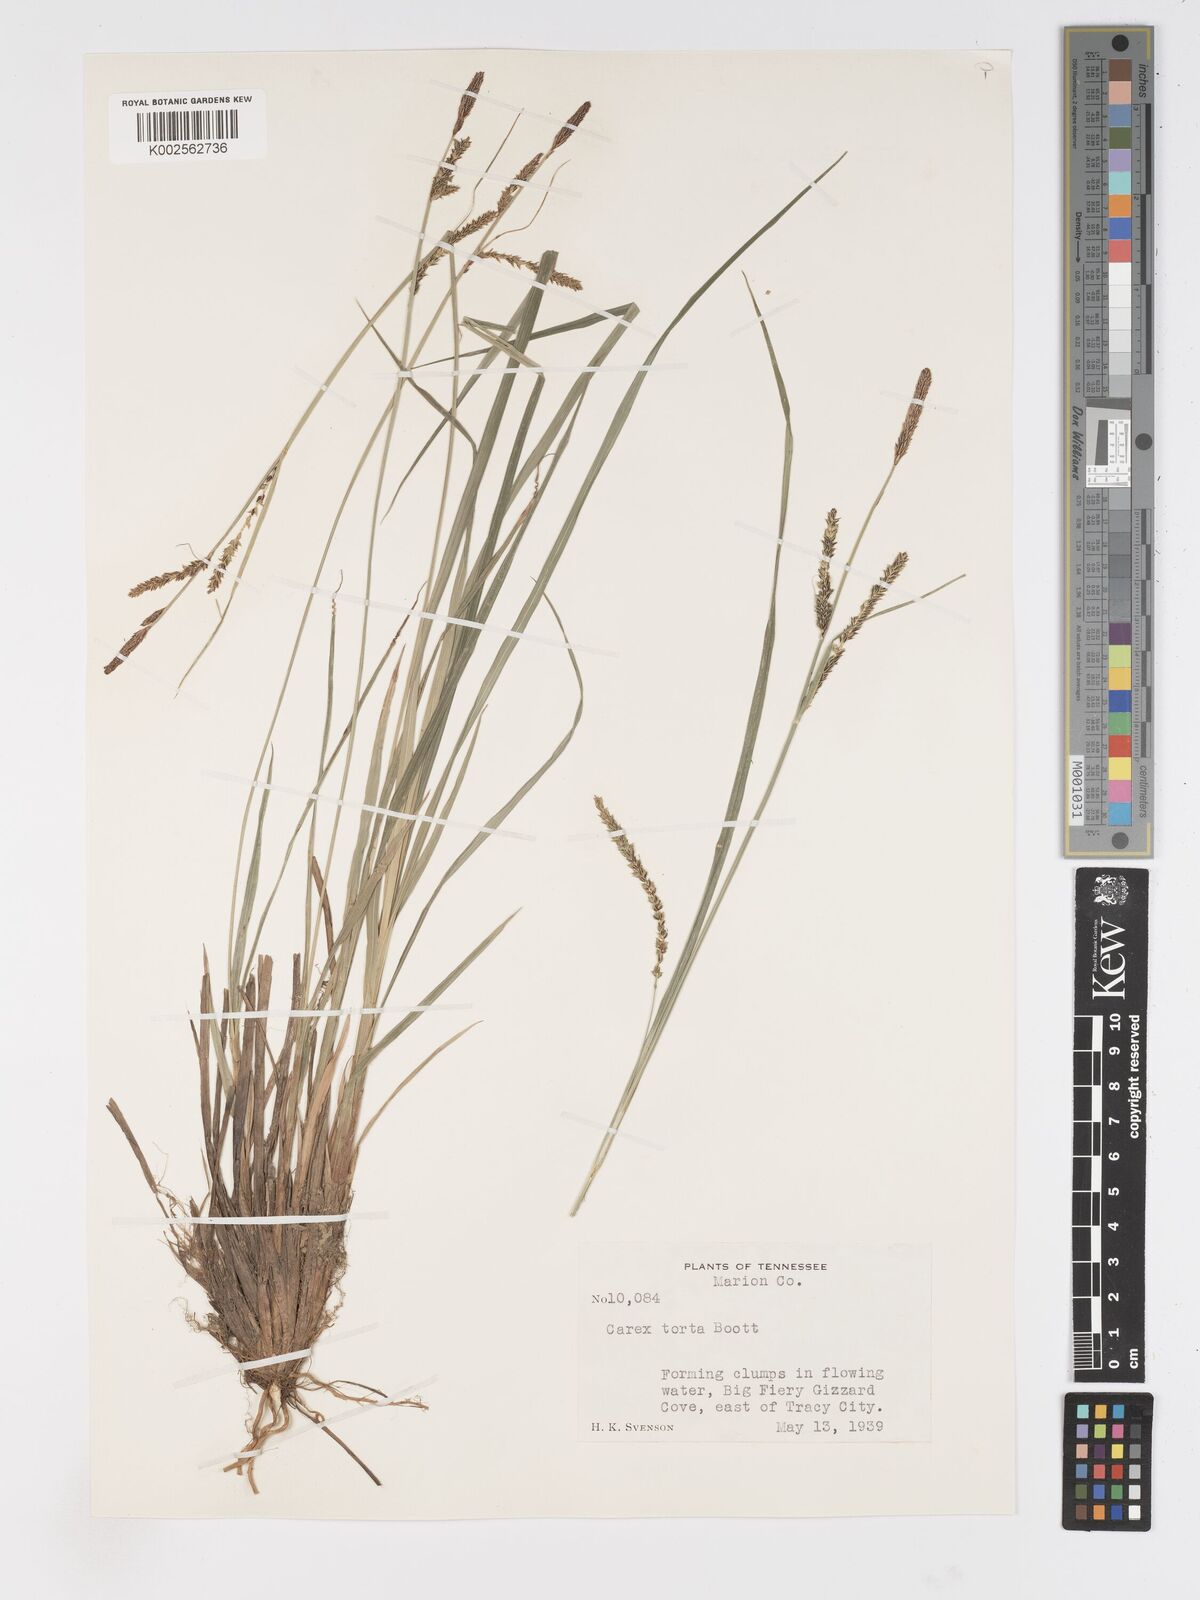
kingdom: Plantae
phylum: Tracheophyta
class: Liliopsida
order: Poales
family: Cyperaceae
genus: Carex
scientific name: Carex torta
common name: Twisted sedge
